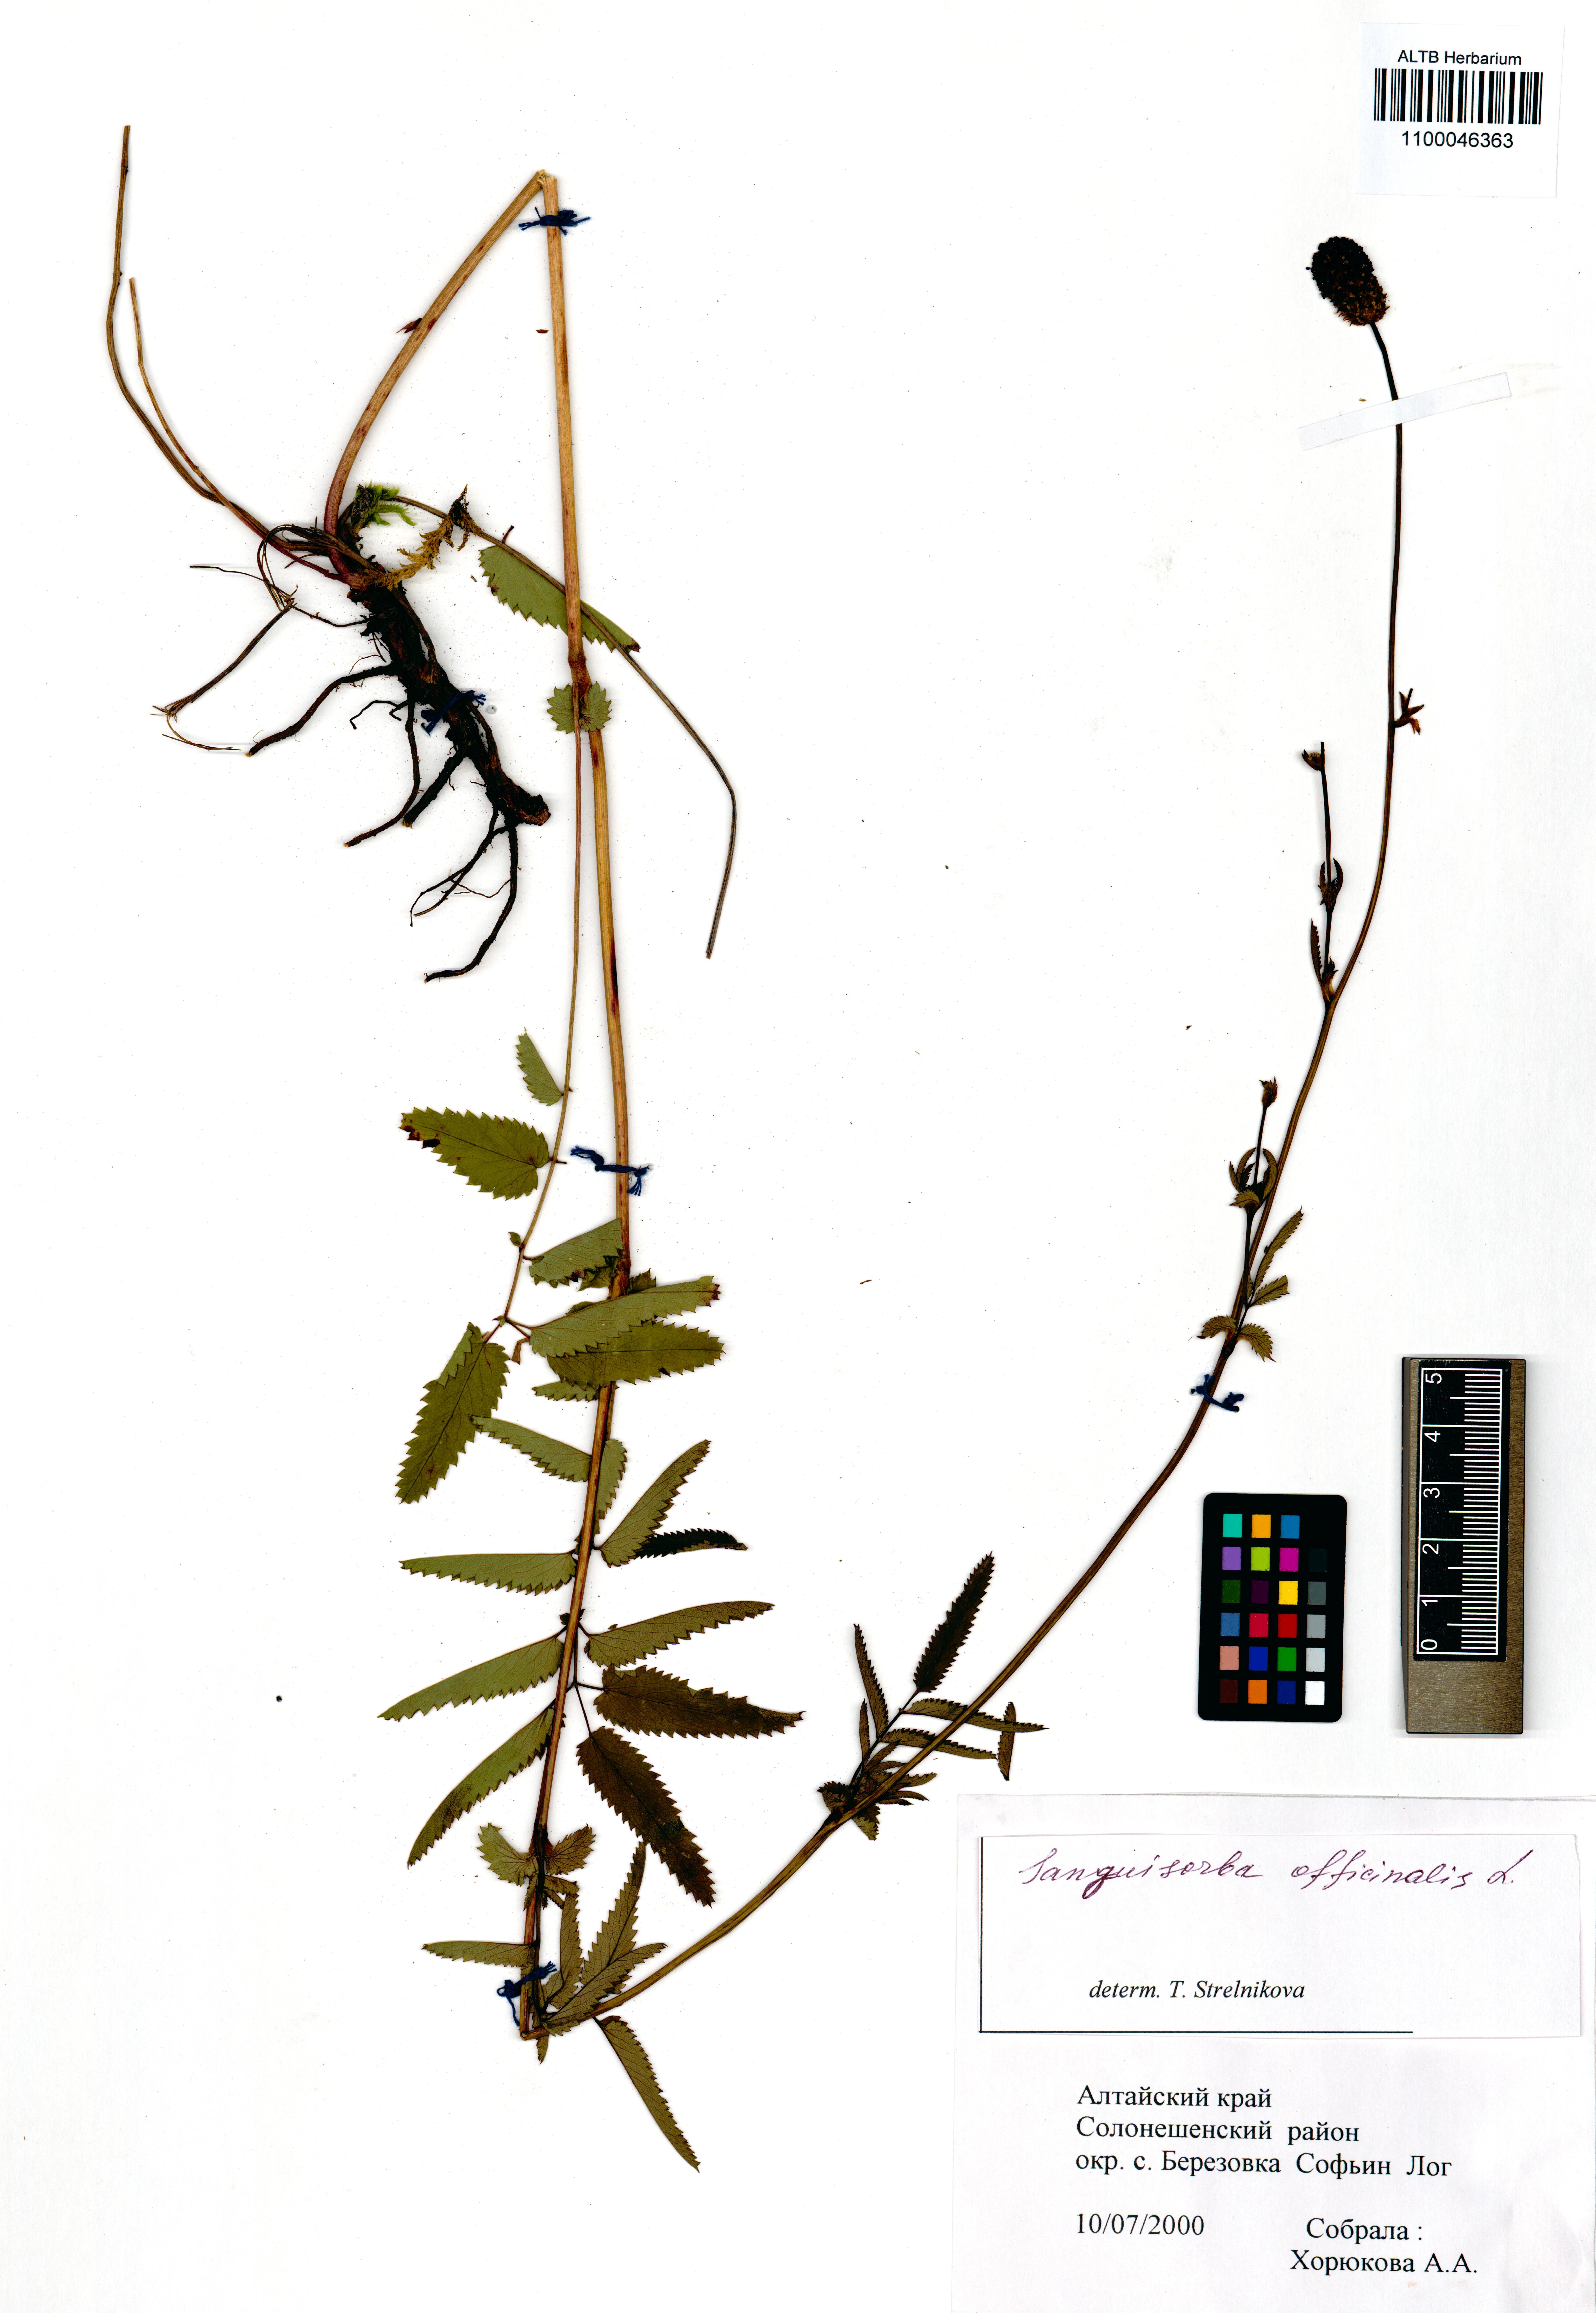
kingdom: Plantae
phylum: Tracheophyta
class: Magnoliopsida
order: Rosales
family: Rosaceae
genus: Sanguisorba
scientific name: Sanguisorba officinalis
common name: Great burnet
